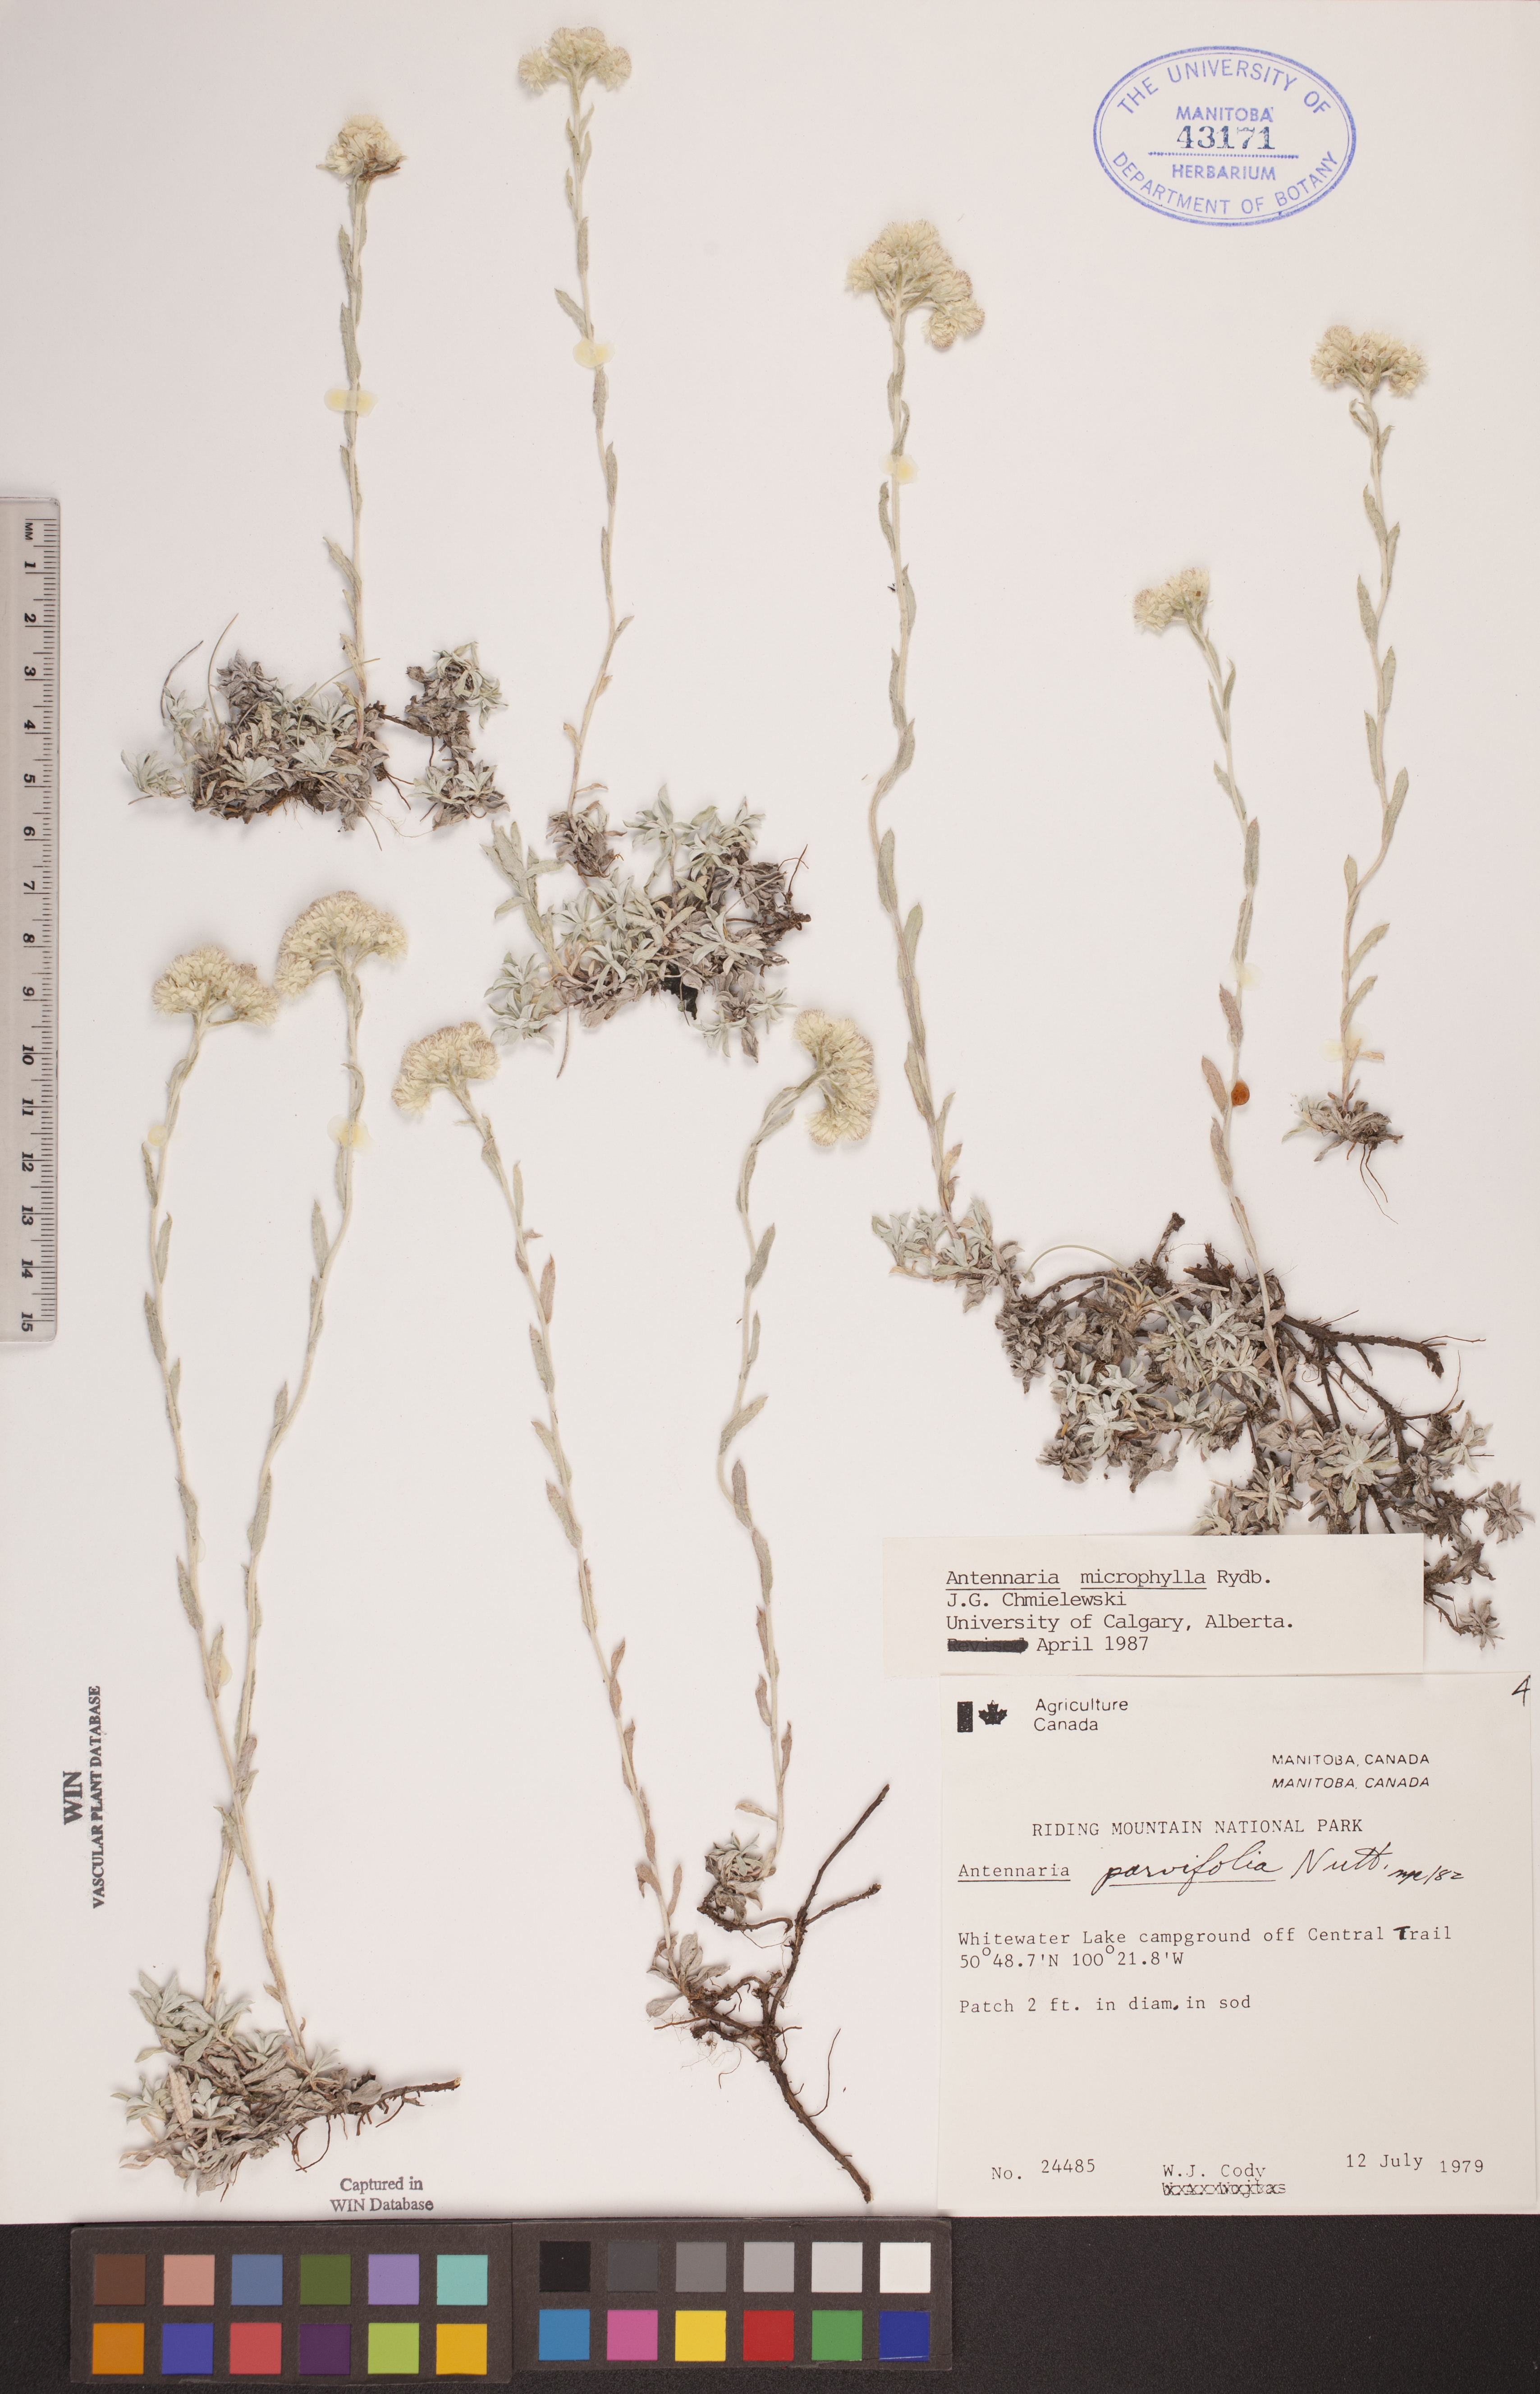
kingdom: Plantae
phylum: Tracheophyta
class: Magnoliopsida
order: Asterales
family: Asteraceae
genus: Antennaria
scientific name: Antennaria microphylla
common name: Littleleaf pussytoes
